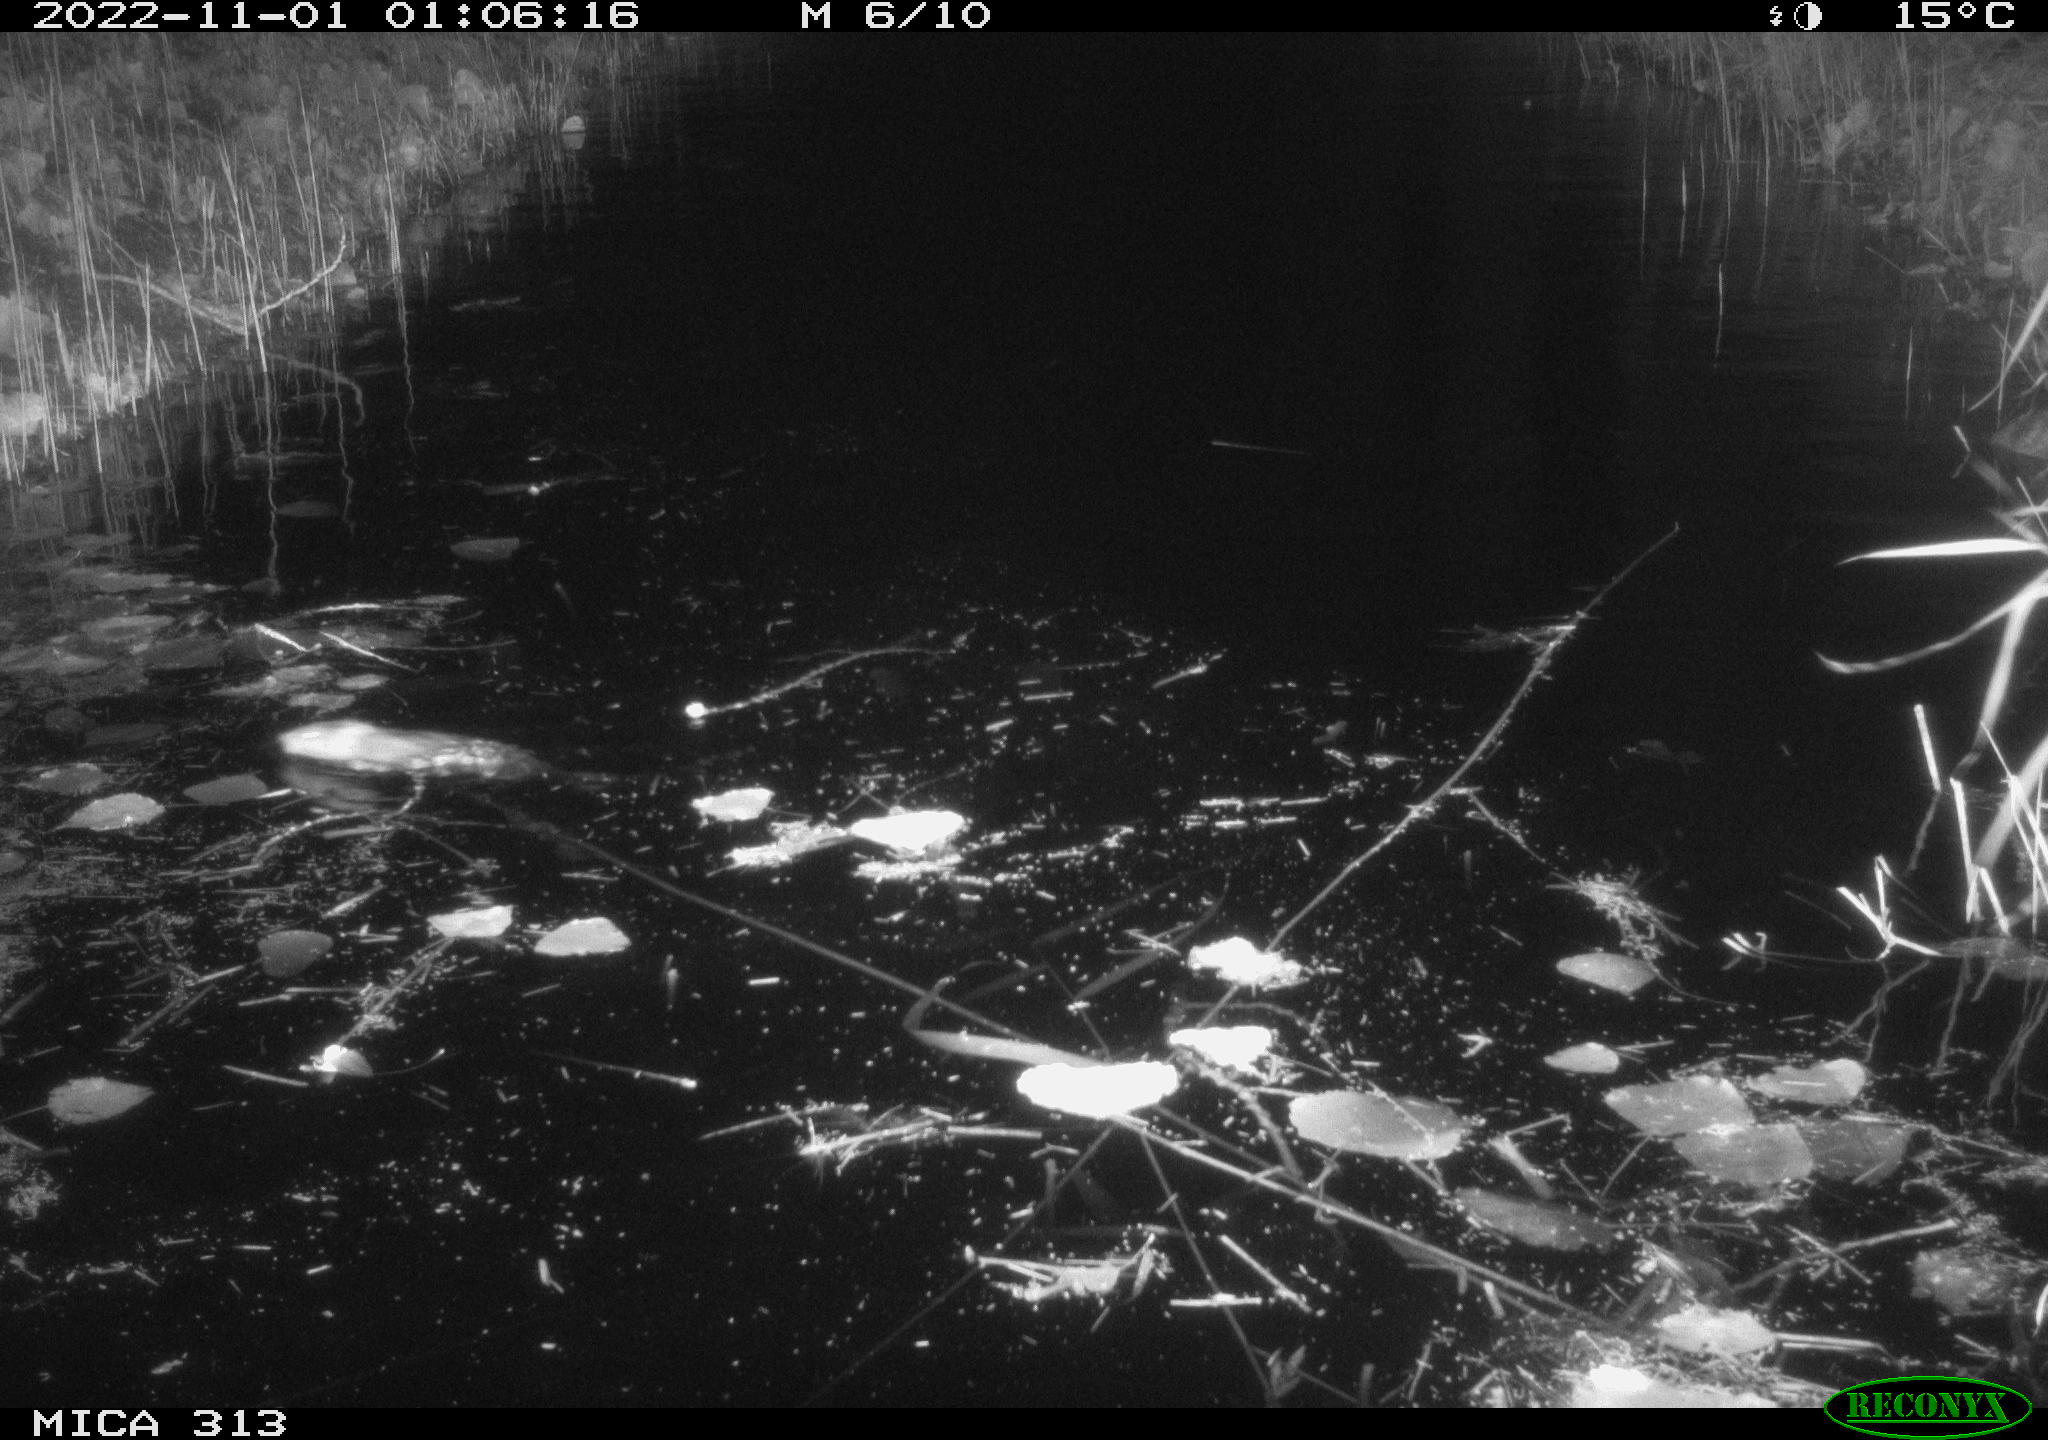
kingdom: Animalia
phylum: Chordata
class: Mammalia
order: Rodentia
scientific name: Rodentia
